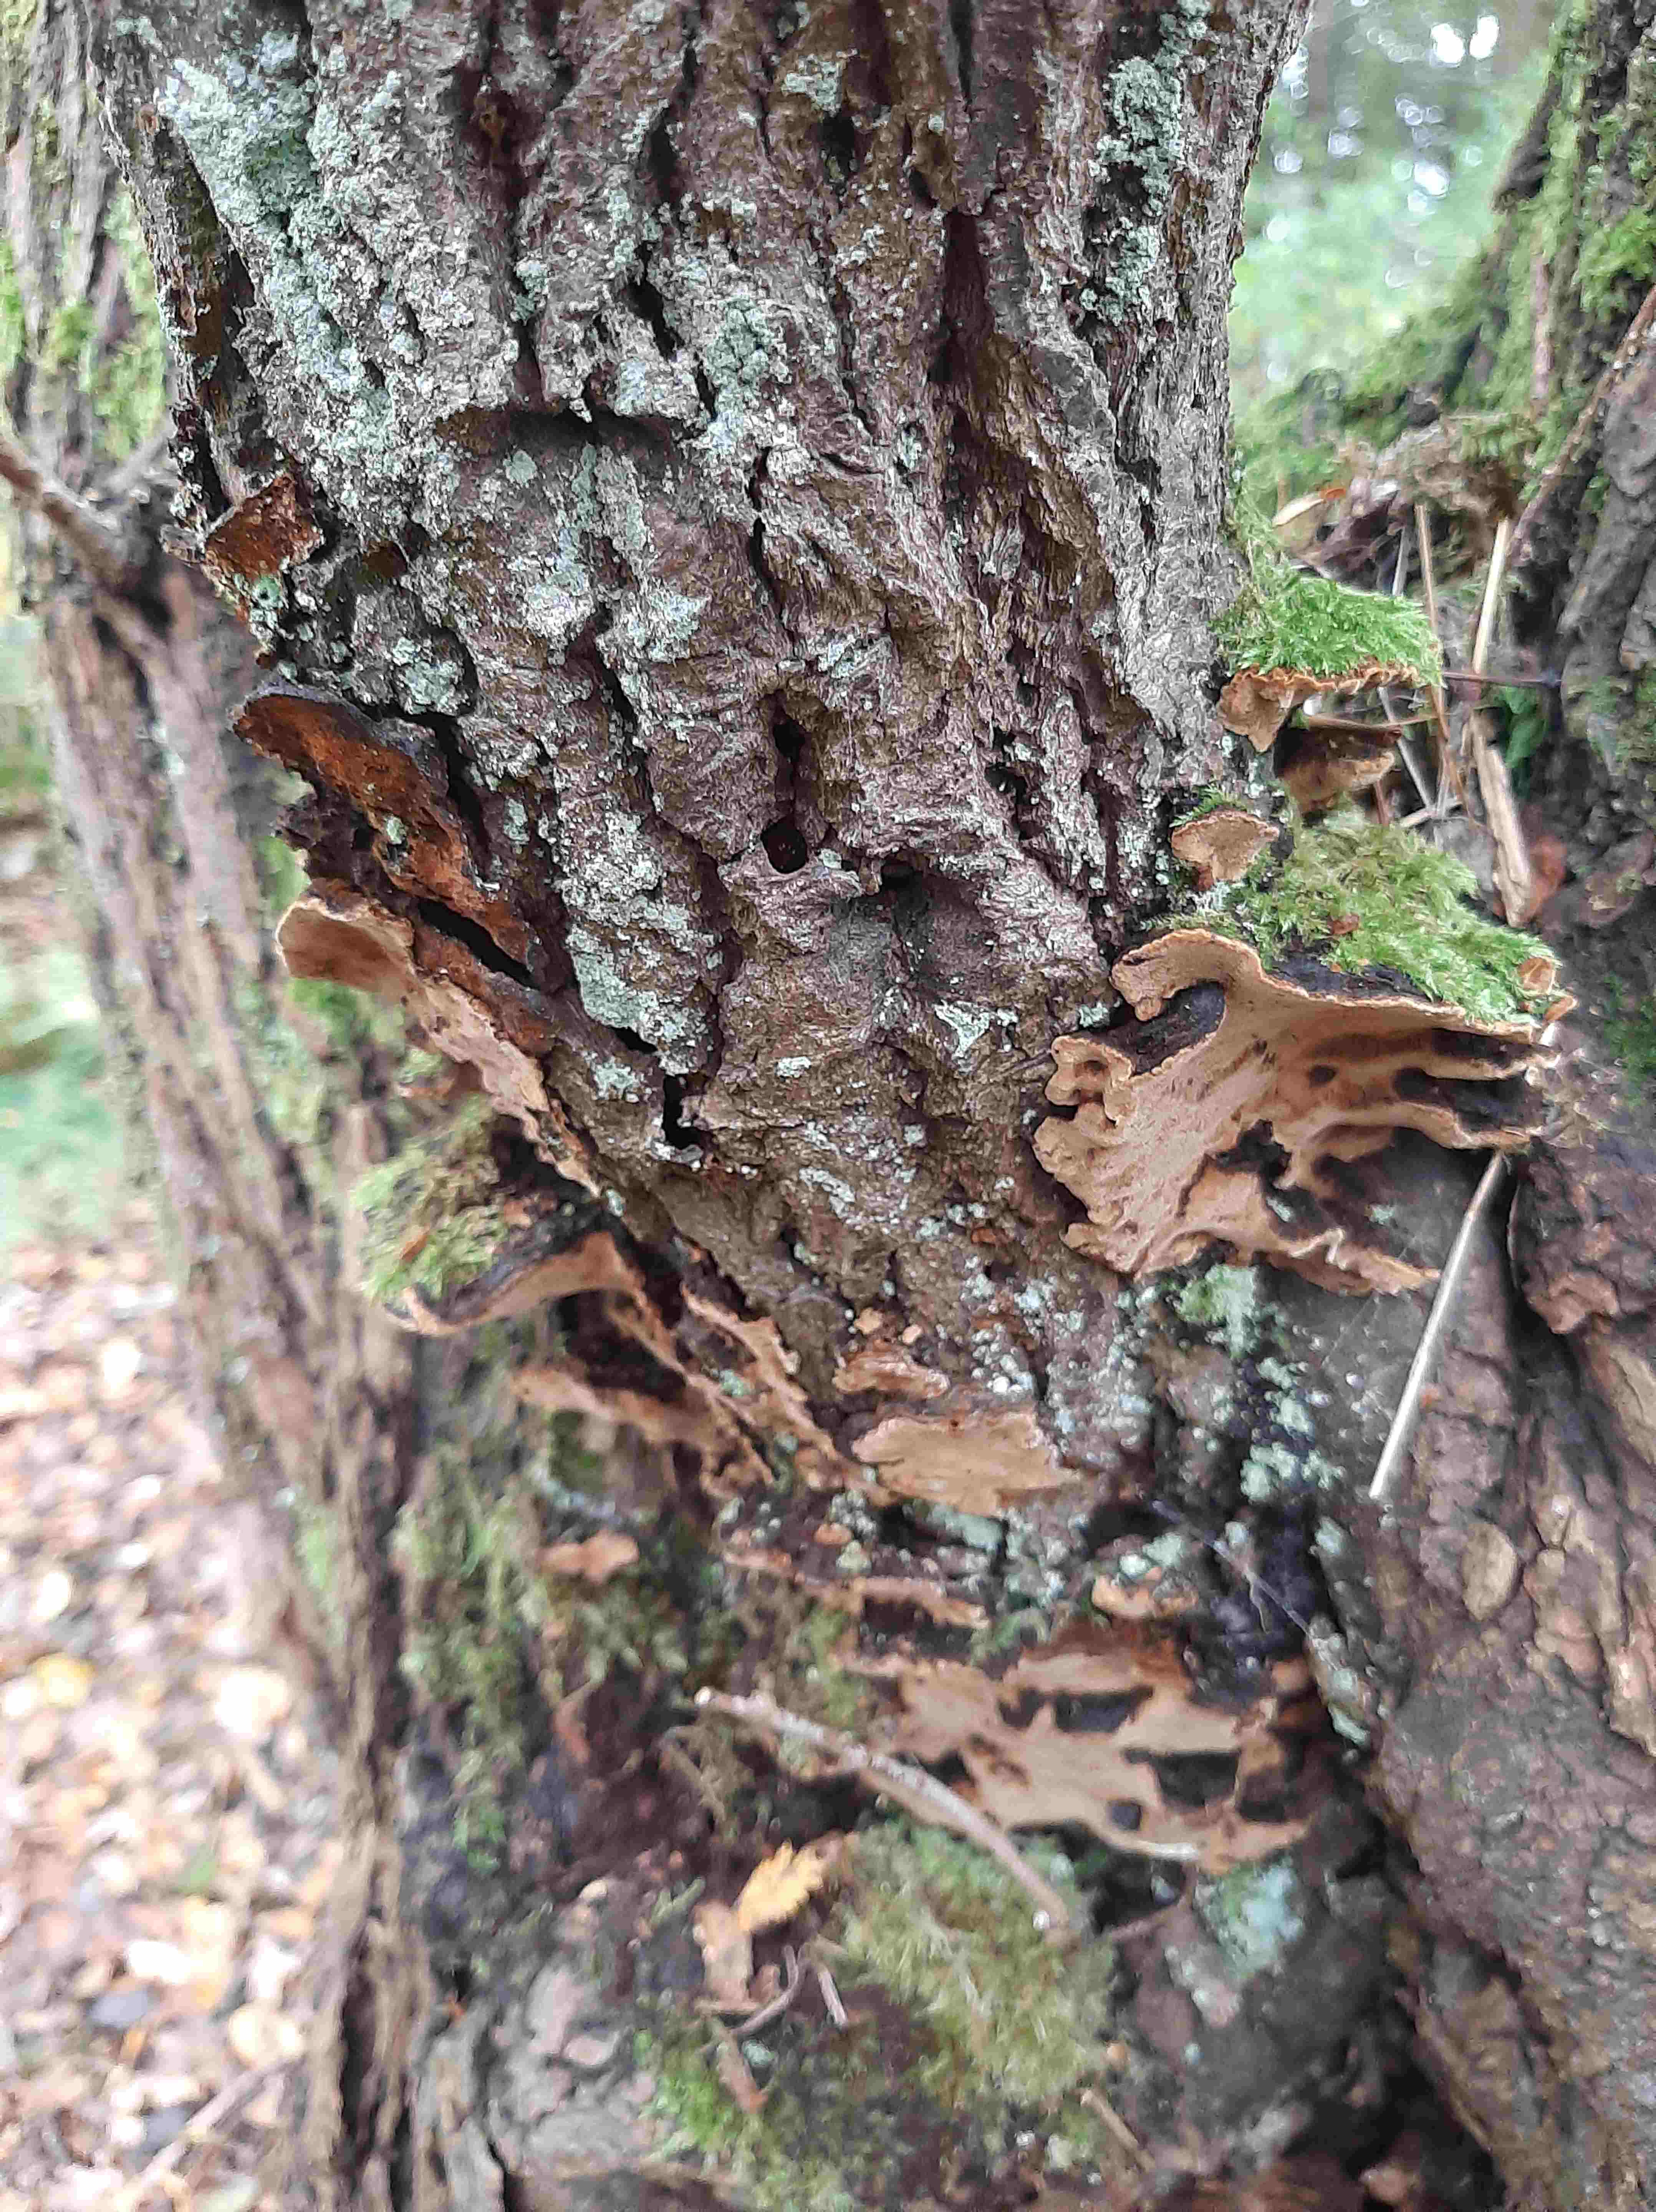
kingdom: Fungi
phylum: Basidiomycota
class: Agaricomycetes
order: Hymenochaetales
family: Hymenochaetaceae
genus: Phellinopsis
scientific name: Phellinopsis conchata
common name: pile-ildporesvamp
